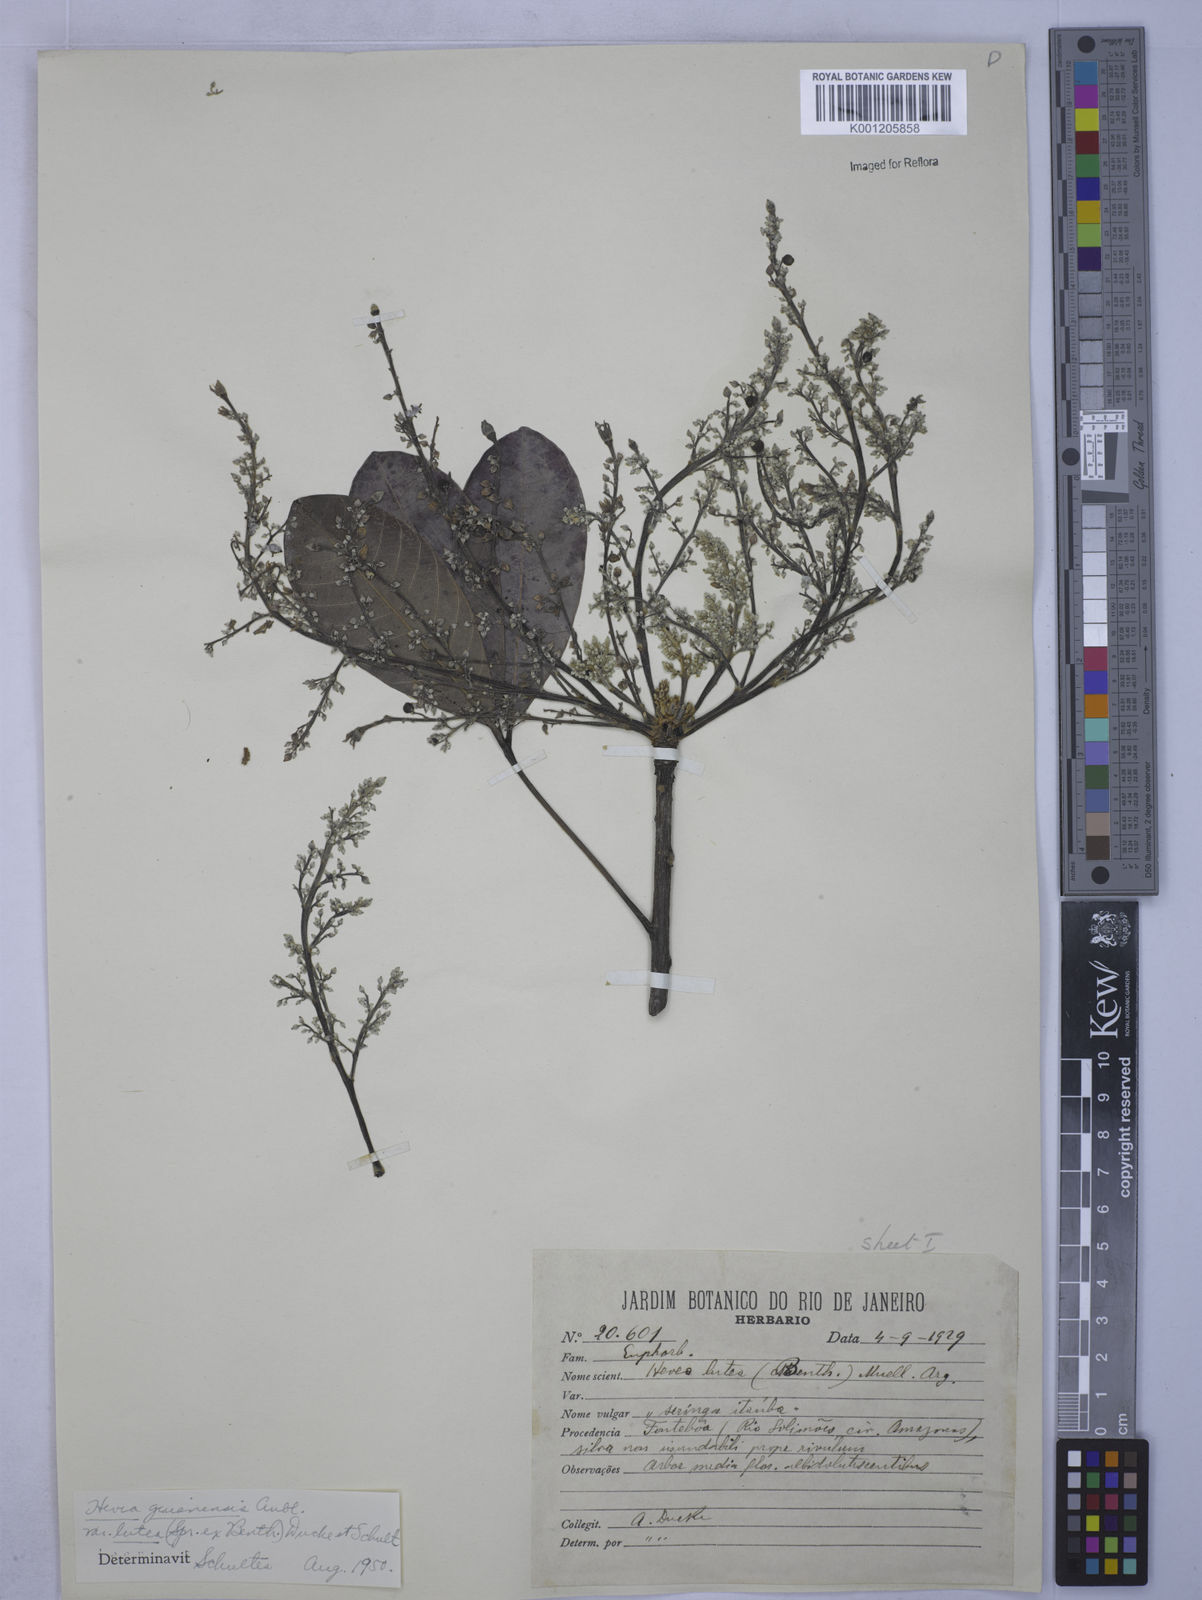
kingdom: Plantae
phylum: Tracheophyta
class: Magnoliopsida
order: Malpighiales
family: Euphorbiaceae
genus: Hevea
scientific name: Hevea guianensis
